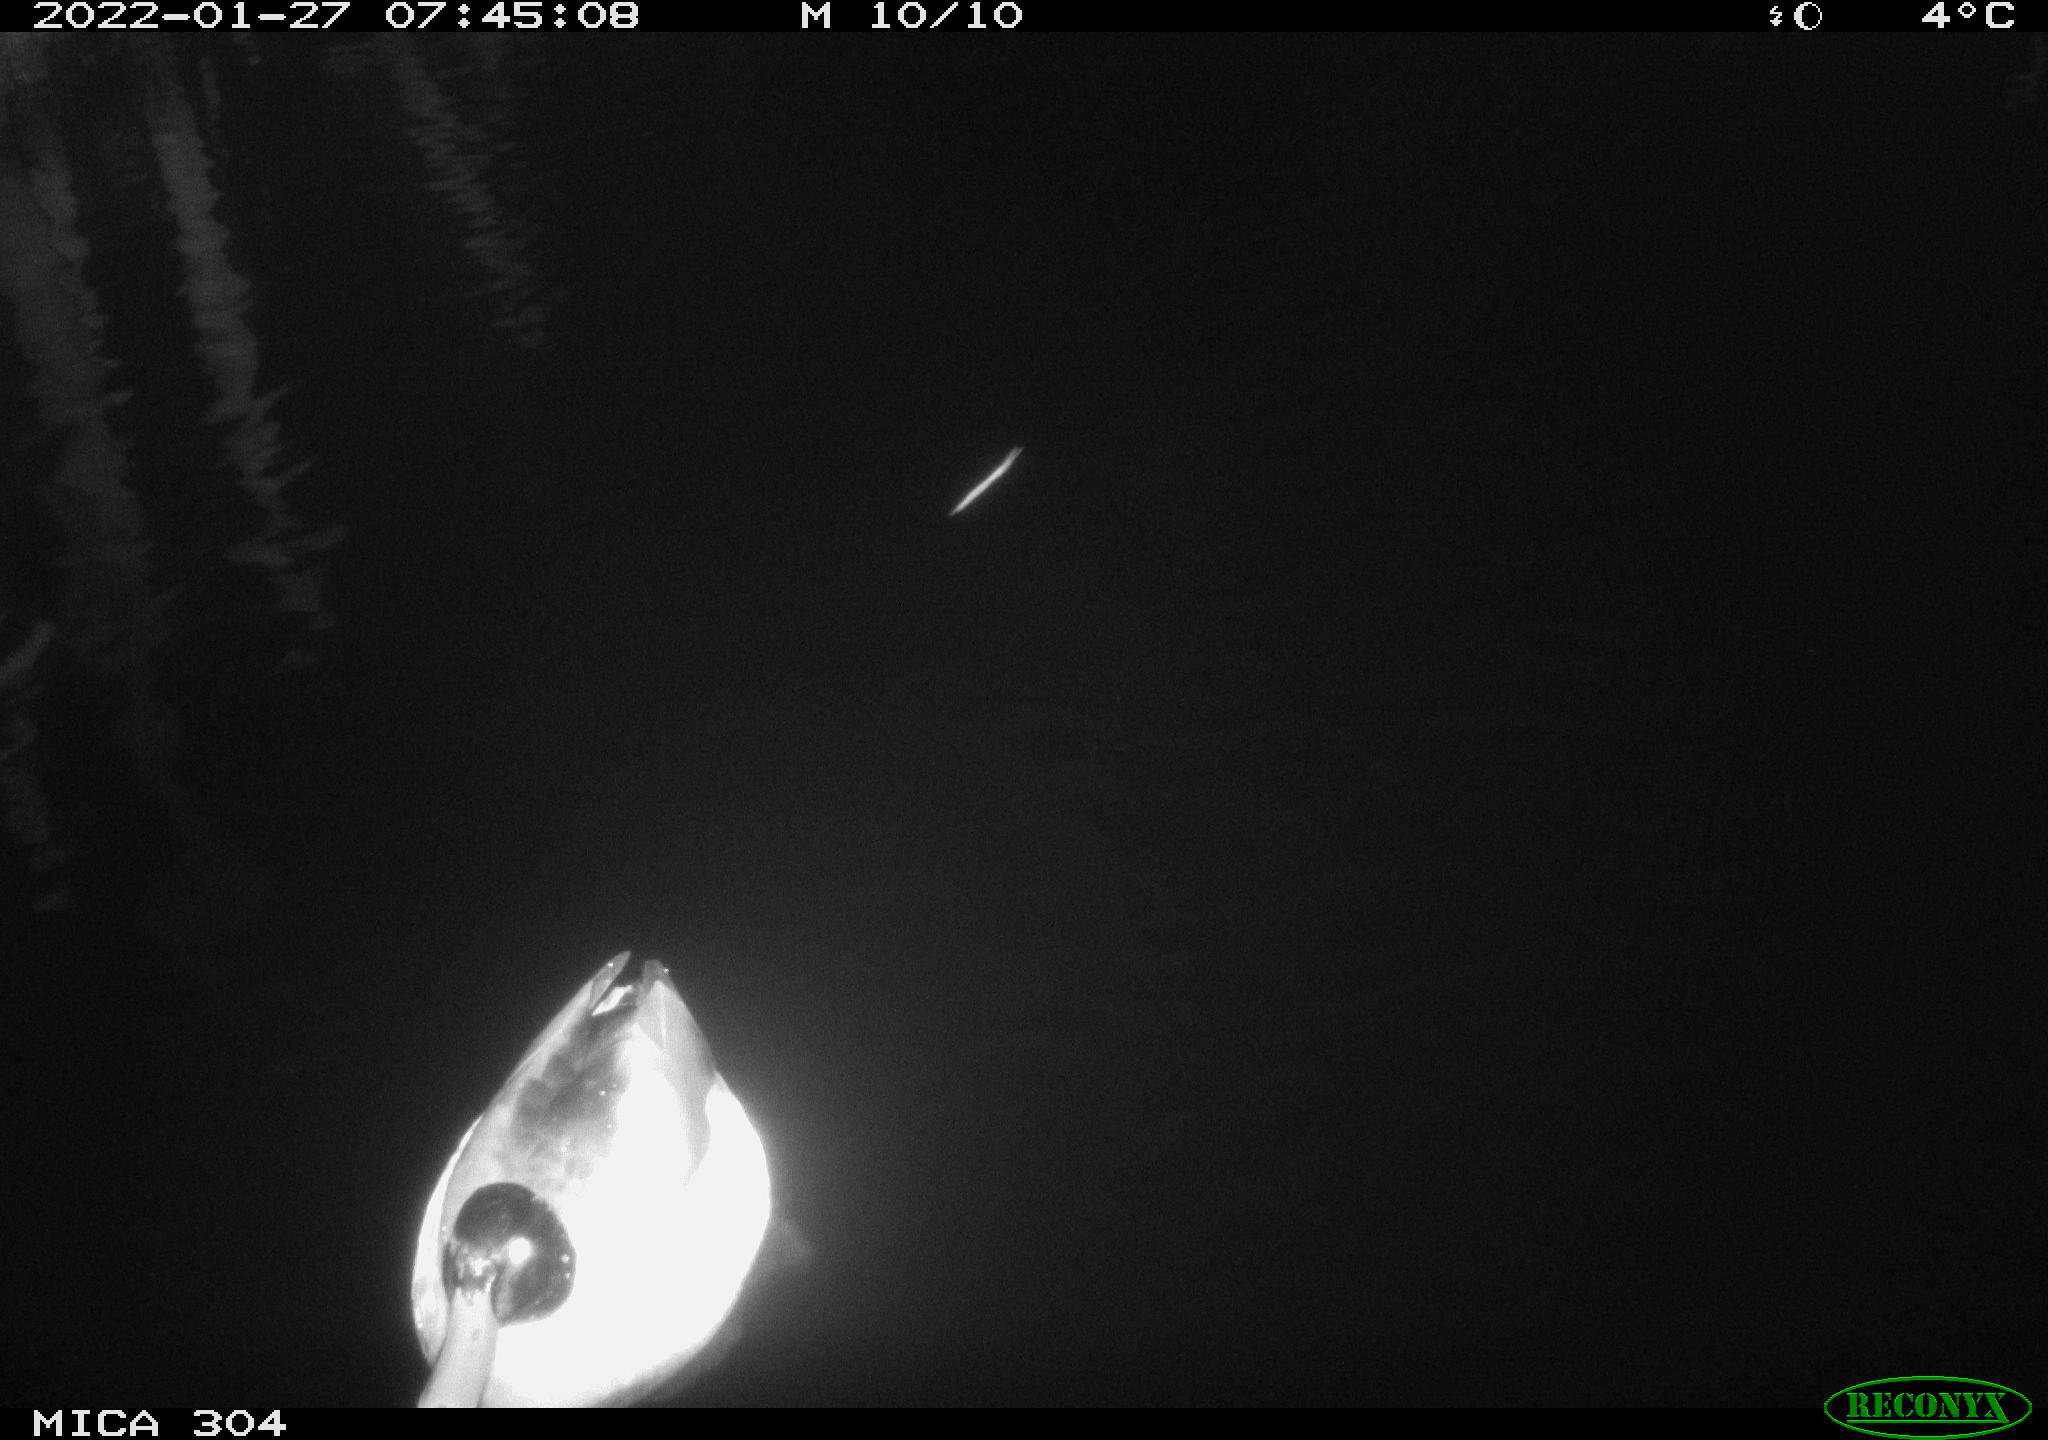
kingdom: Animalia
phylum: Chordata
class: Aves
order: Anseriformes
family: Anatidae
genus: Anas
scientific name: Anas
